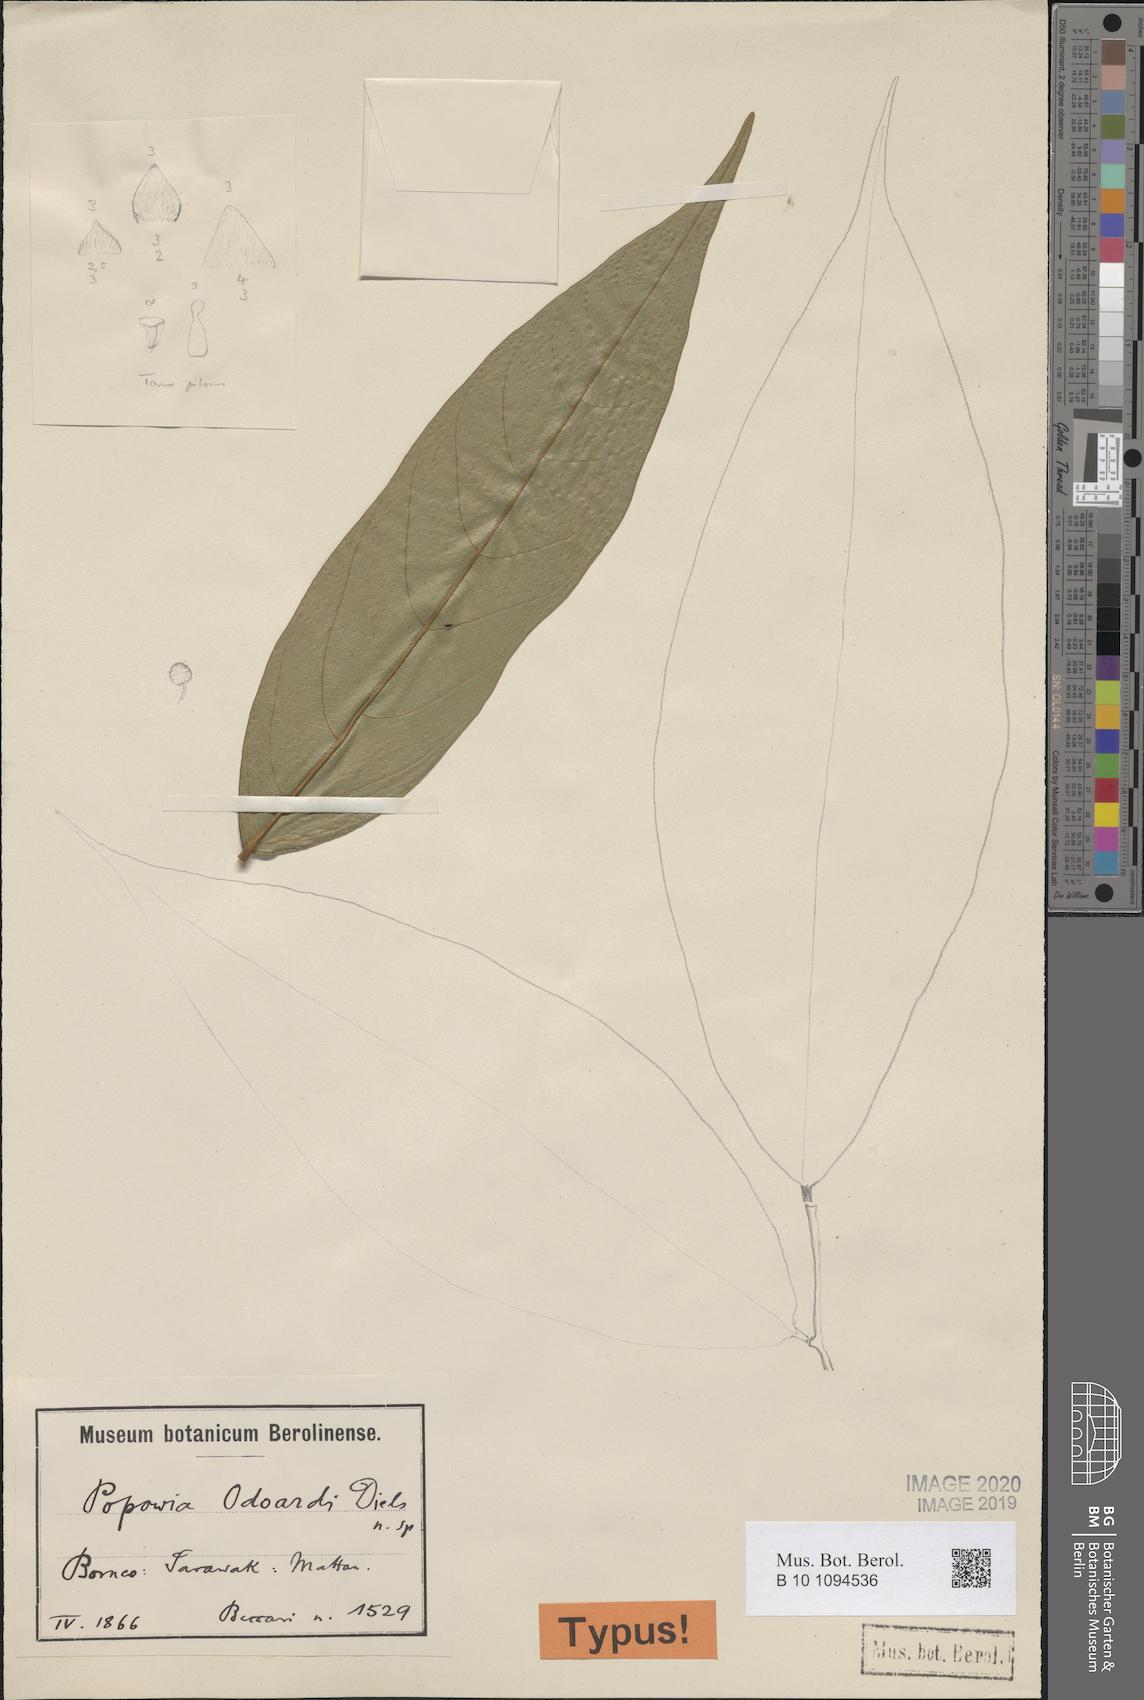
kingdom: Plantae
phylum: Tracheophyta
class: Magnoliopsida
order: Magnoliales
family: Annonaceae
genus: Popowia
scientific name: Popowia odoardi
